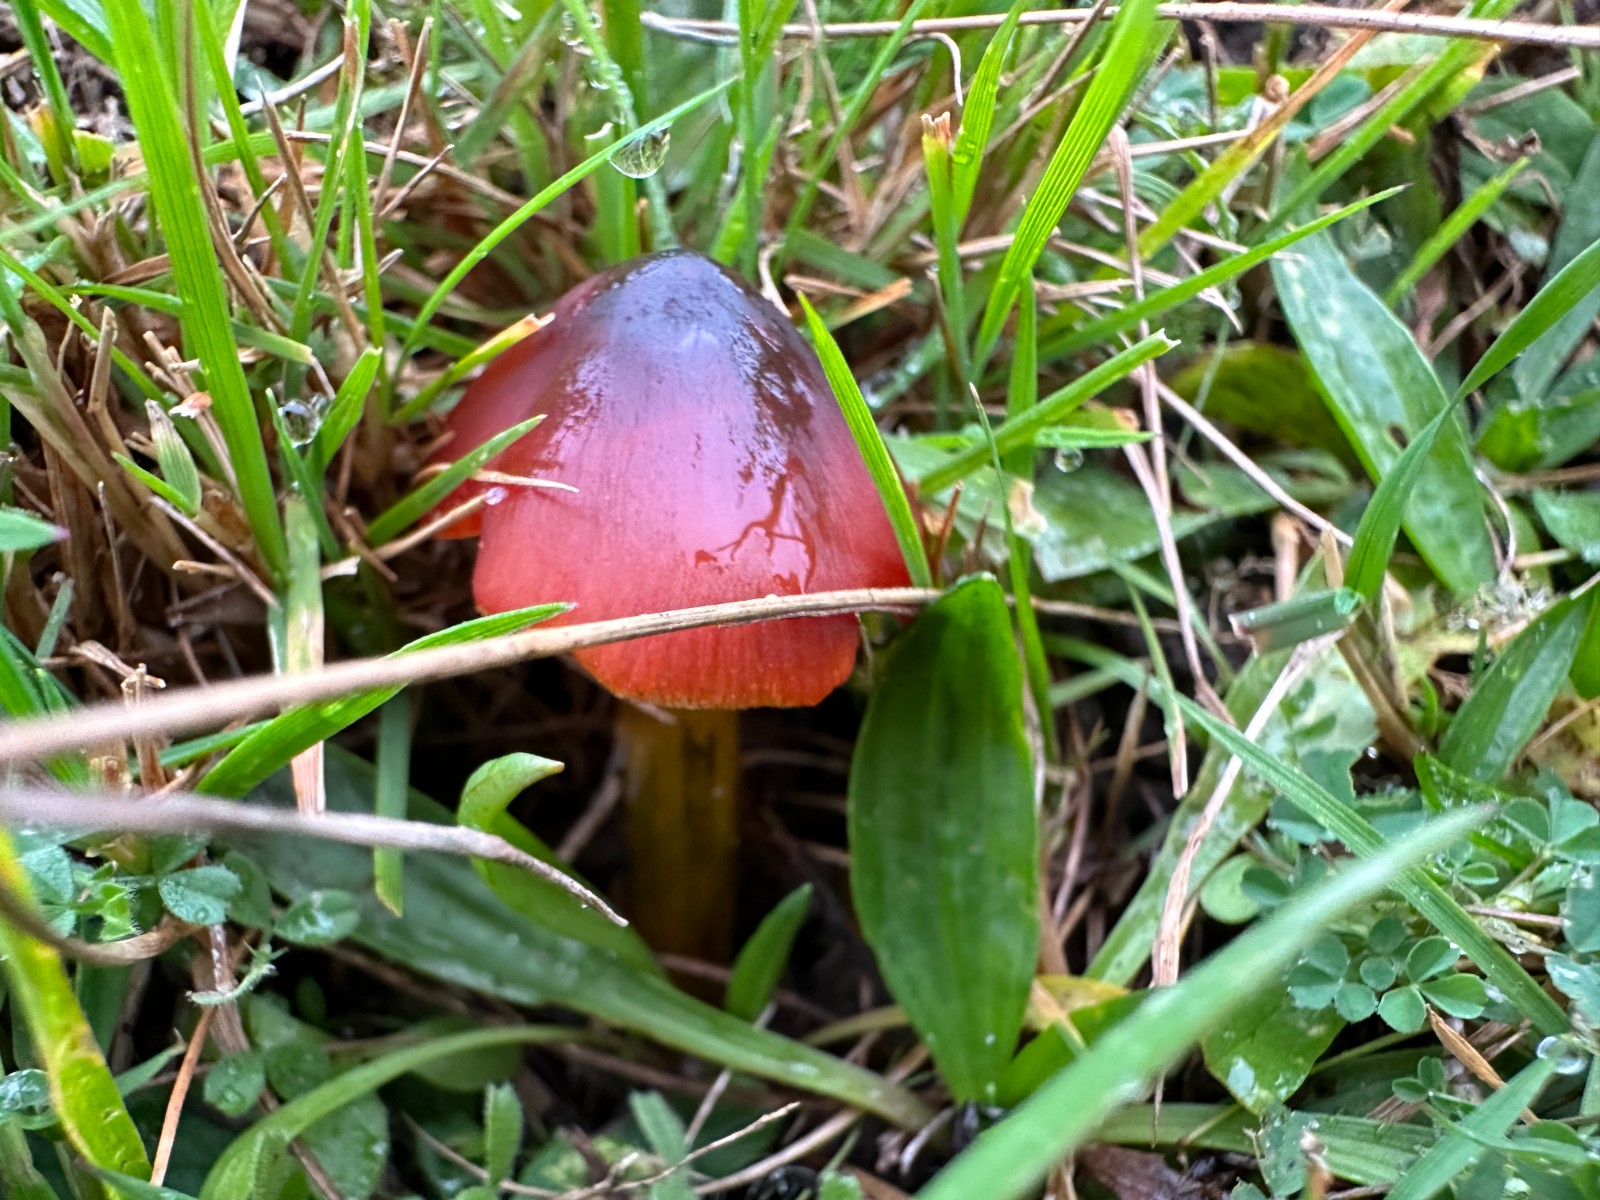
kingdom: Fungi
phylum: Basidiomycota
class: Agaricomycetes
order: Agaricales
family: Hygrophoraceae
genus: Hygrocybe
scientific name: Hygrocybe conica
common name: kegle-vokshat
